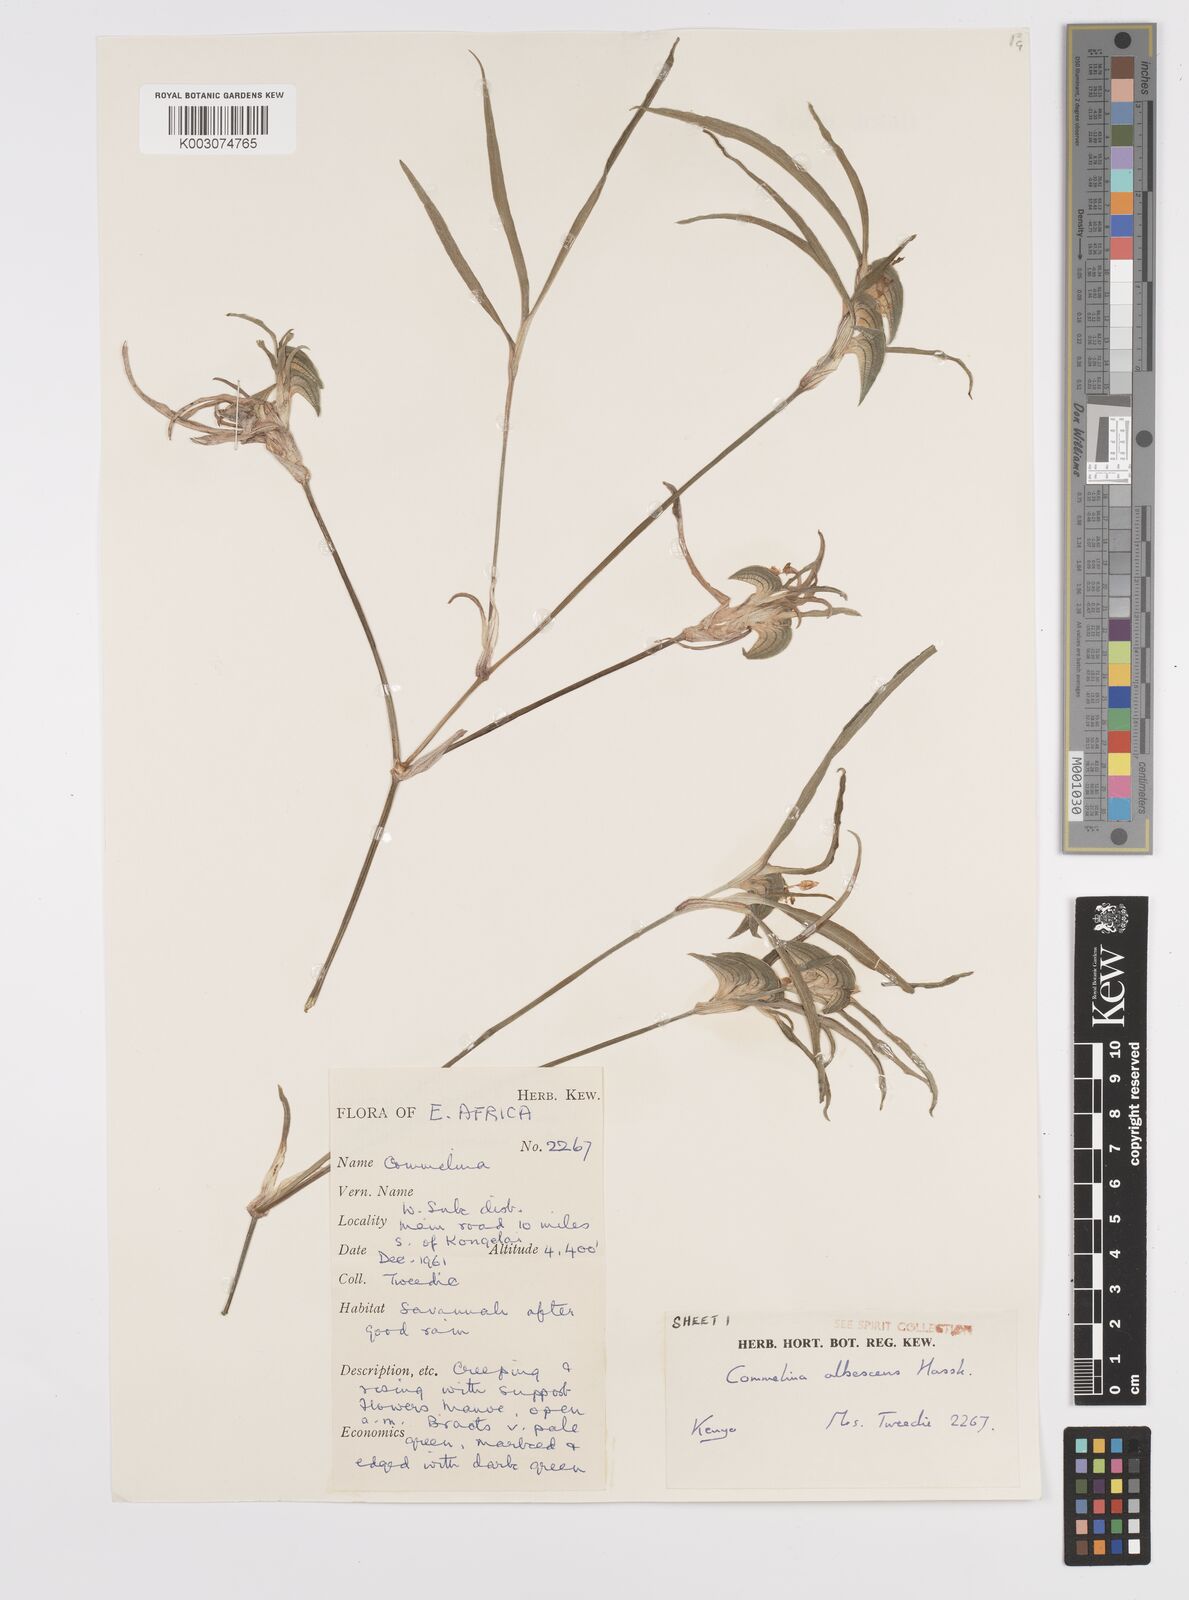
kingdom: Plantae
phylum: Tracheophyta
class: Liliopsida
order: Commelinales
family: Commelinaceae
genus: Commelina
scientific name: Commelina albescens
